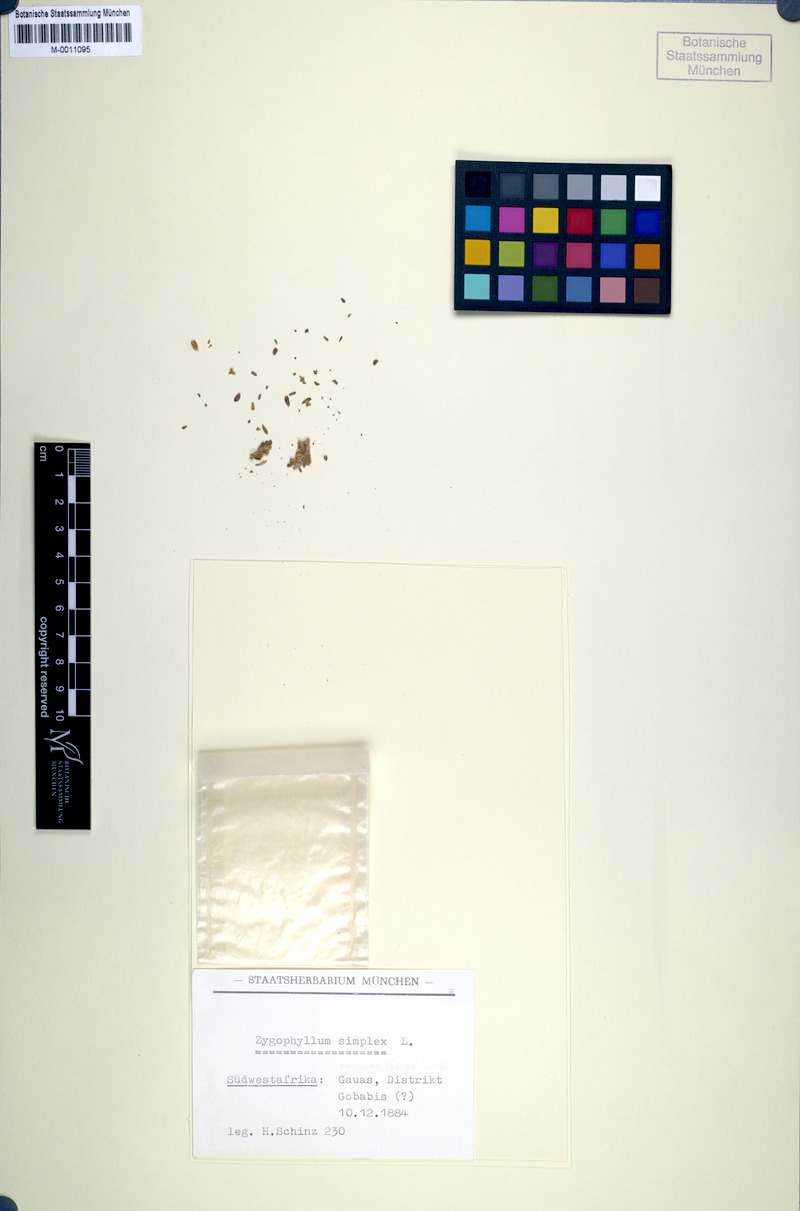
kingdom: Plantae
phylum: Tracheophyta
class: Magnoliopsida
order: Zygophyllales
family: Zygophyllaceae
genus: Tetraena
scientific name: Tetraena simplex
